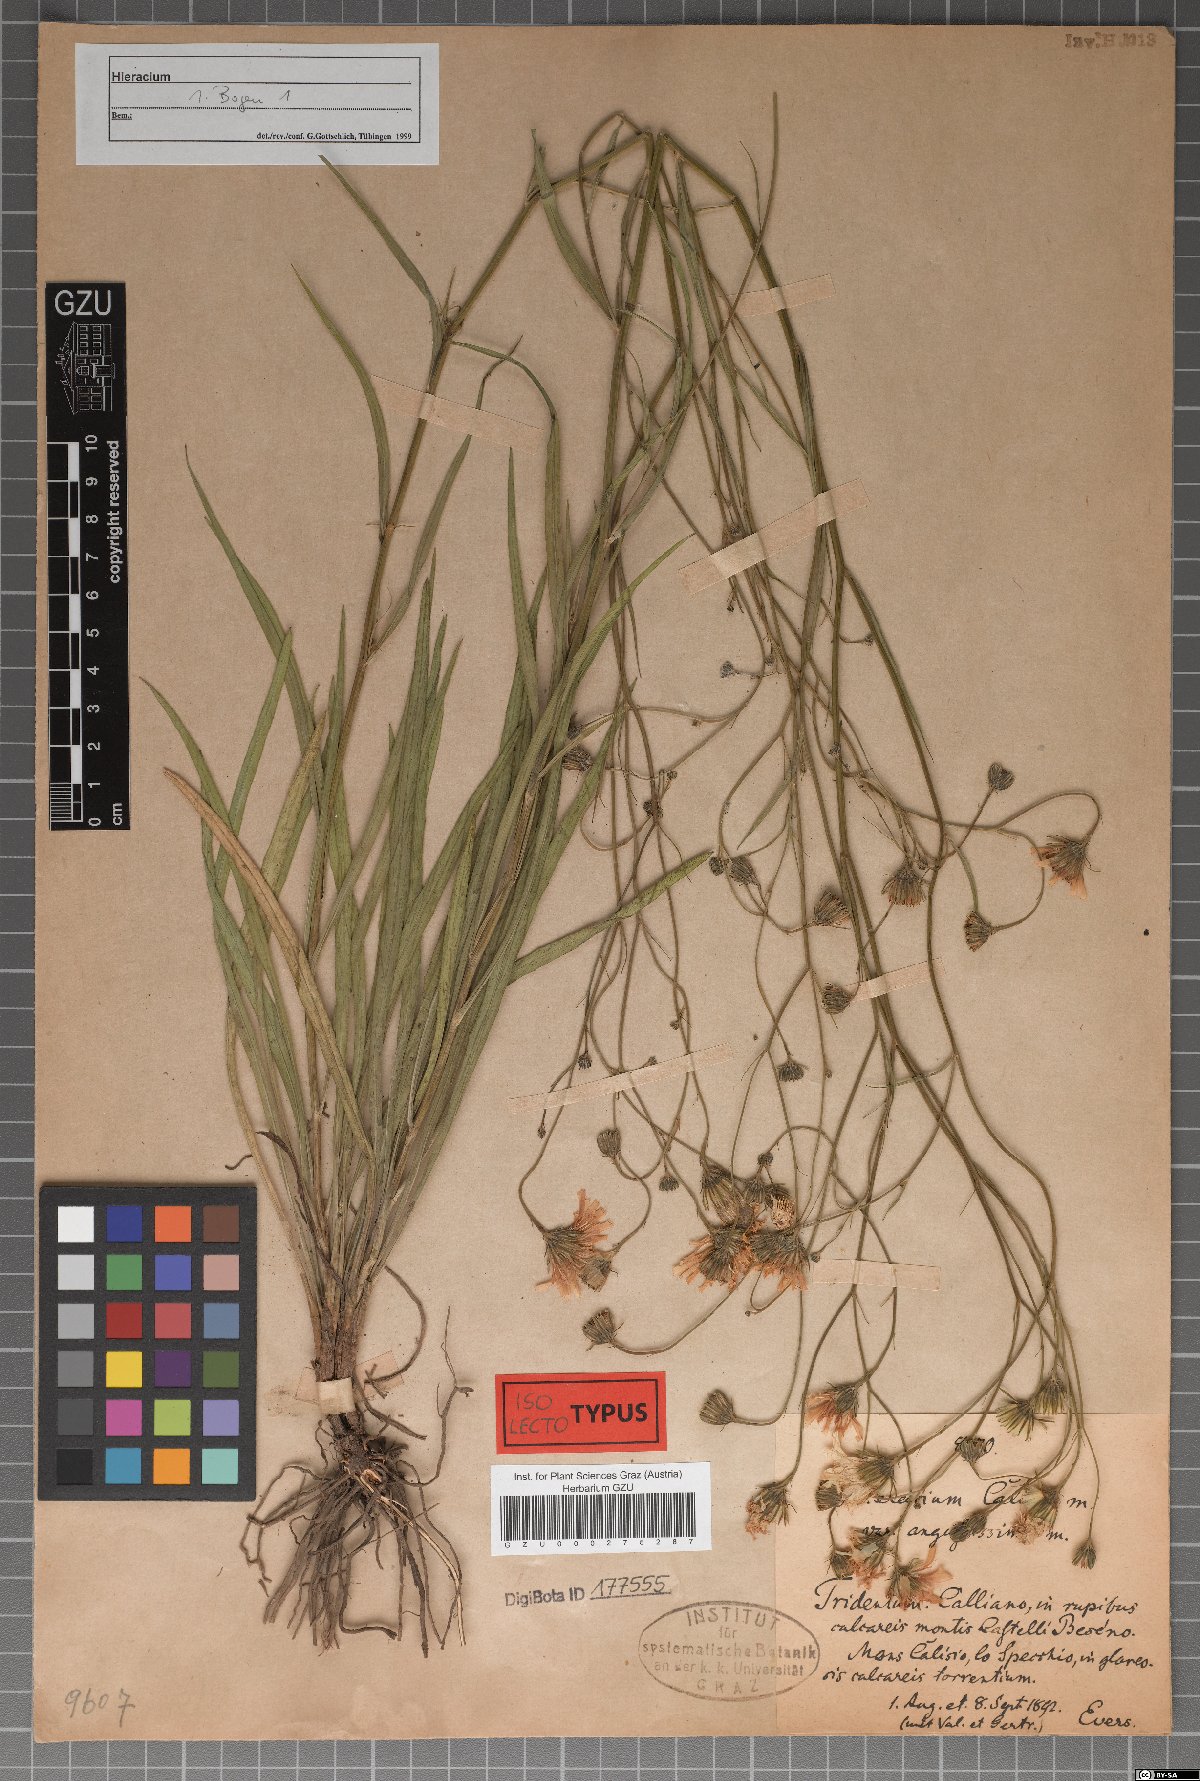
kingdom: Plantae
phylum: Tracheophyta
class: Magnoliopsida
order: Asterales
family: Asteraceae
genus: Hieracium
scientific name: Hieracium porrifolium
